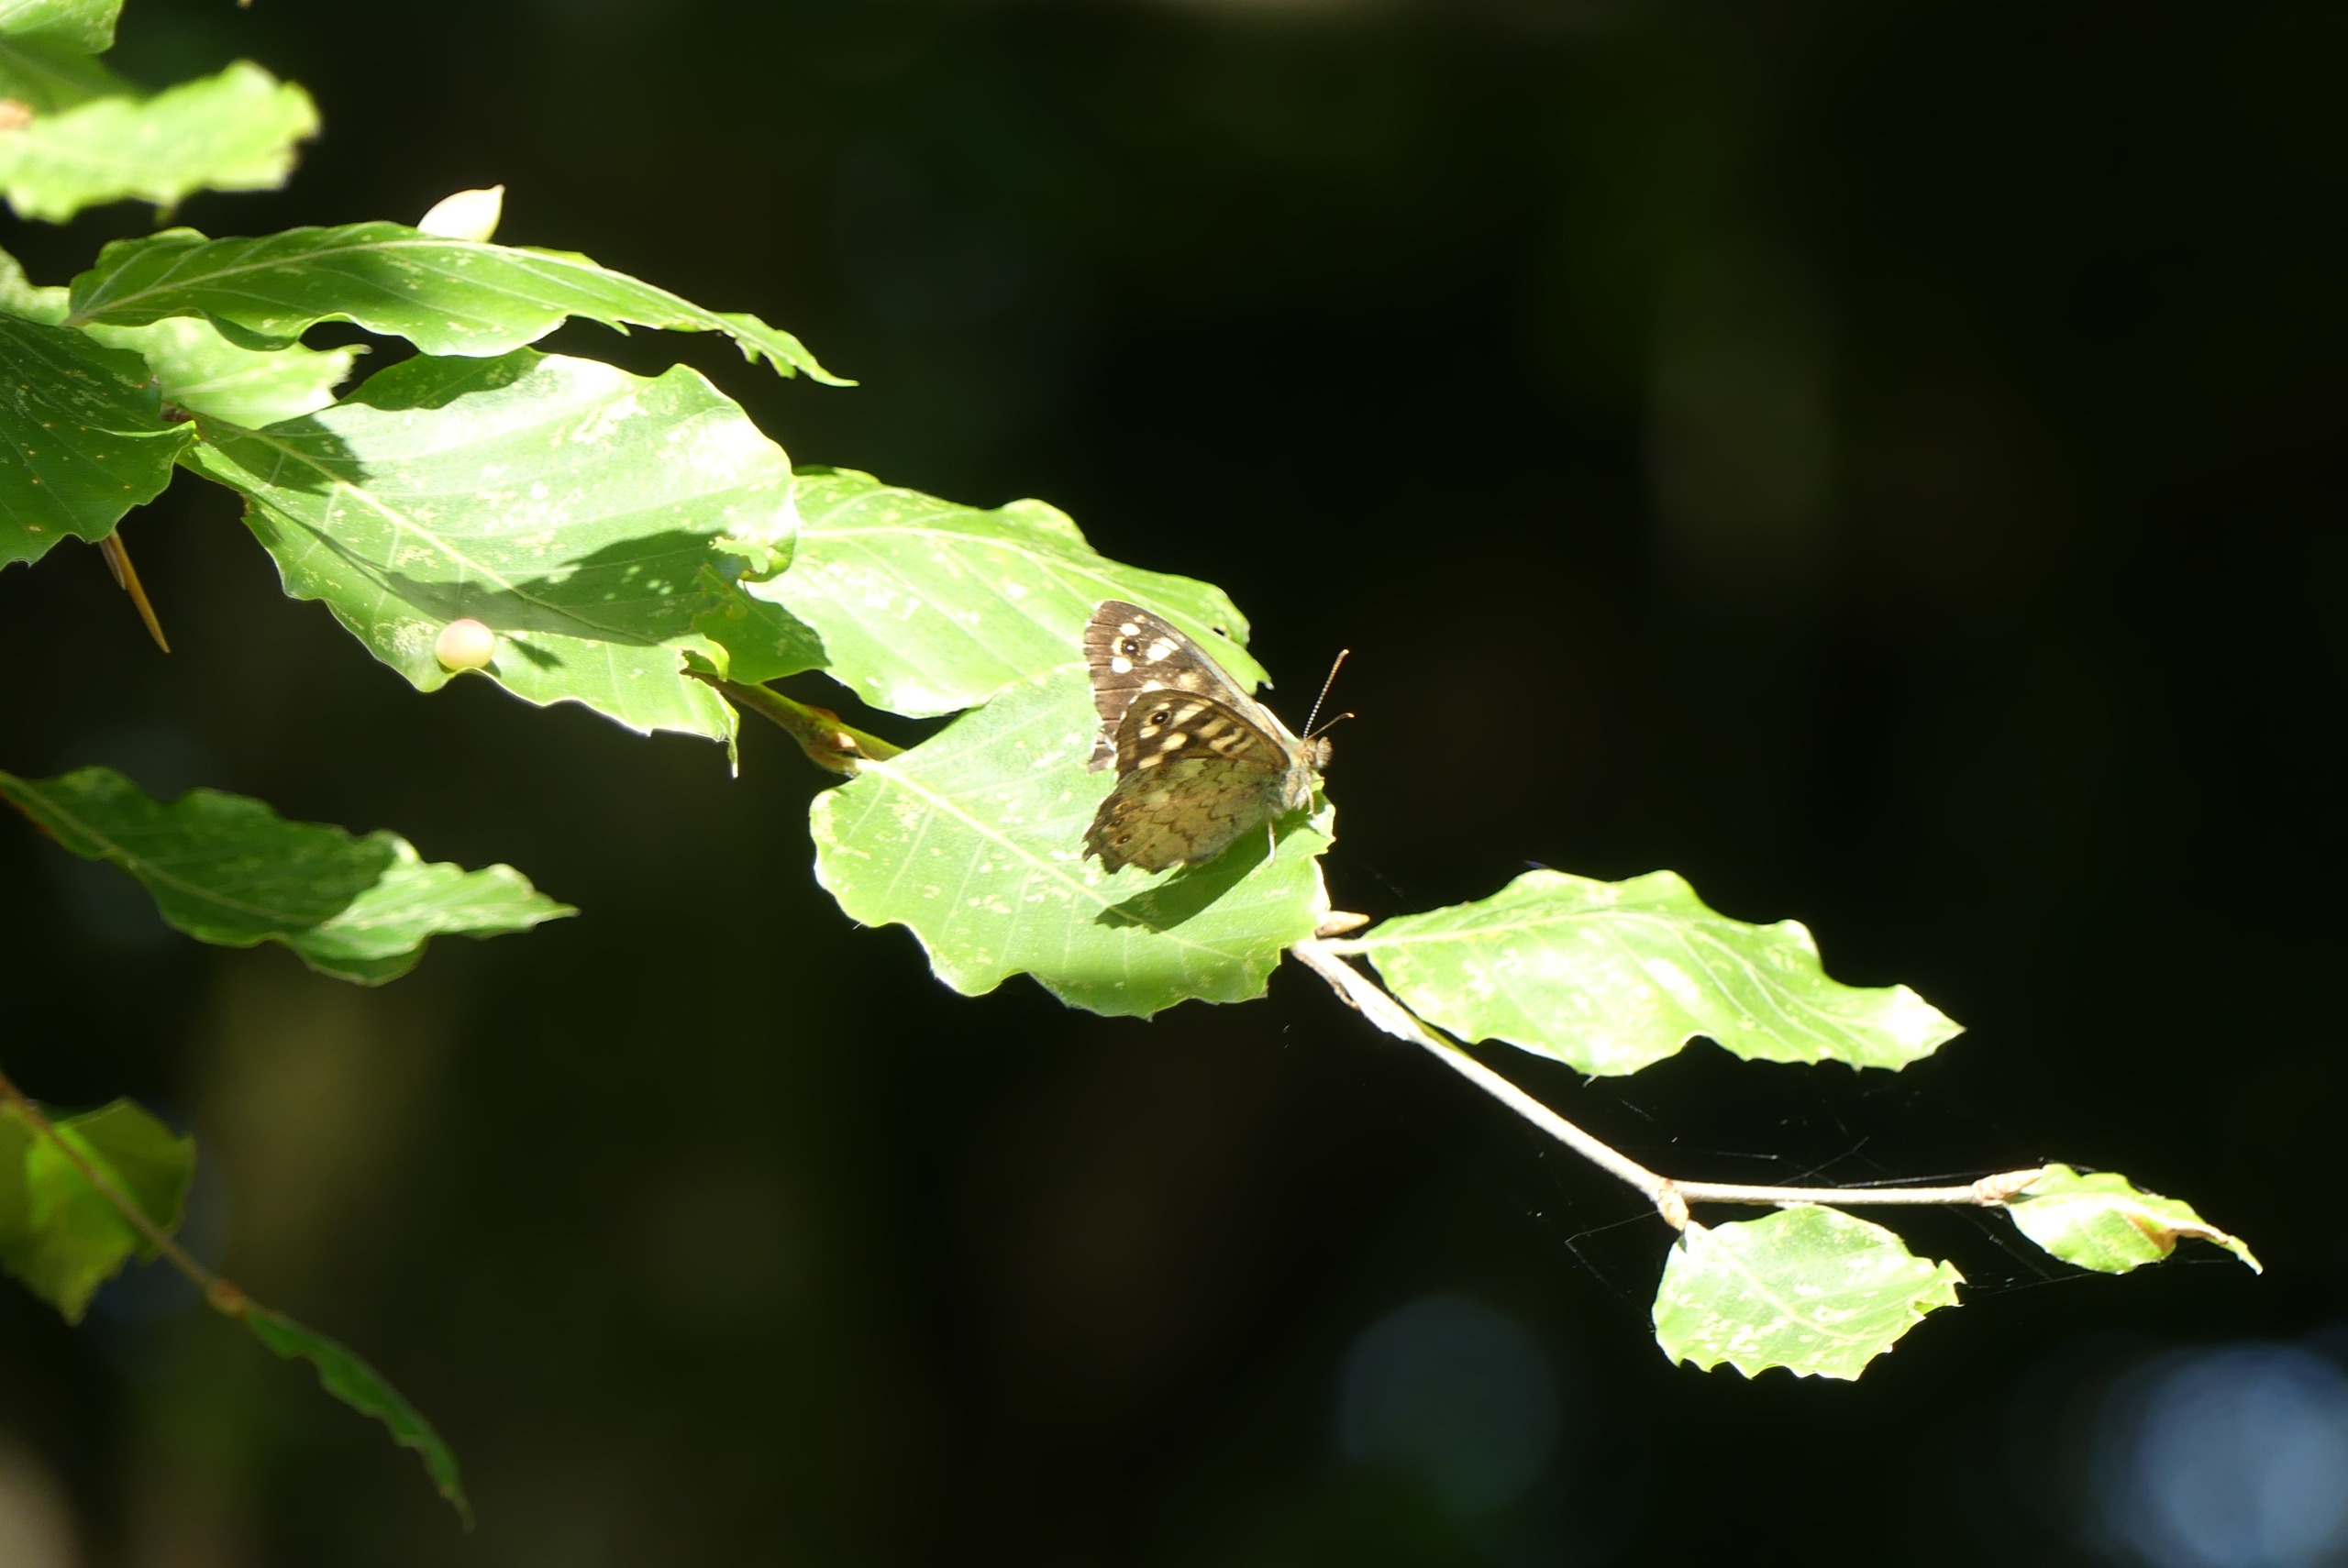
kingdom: Animalia
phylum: Arthropoda
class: Insecta
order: Lepidoptera
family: Nymphalidae
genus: Pararge
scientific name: Pararge aegeria
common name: Skovrandøje
